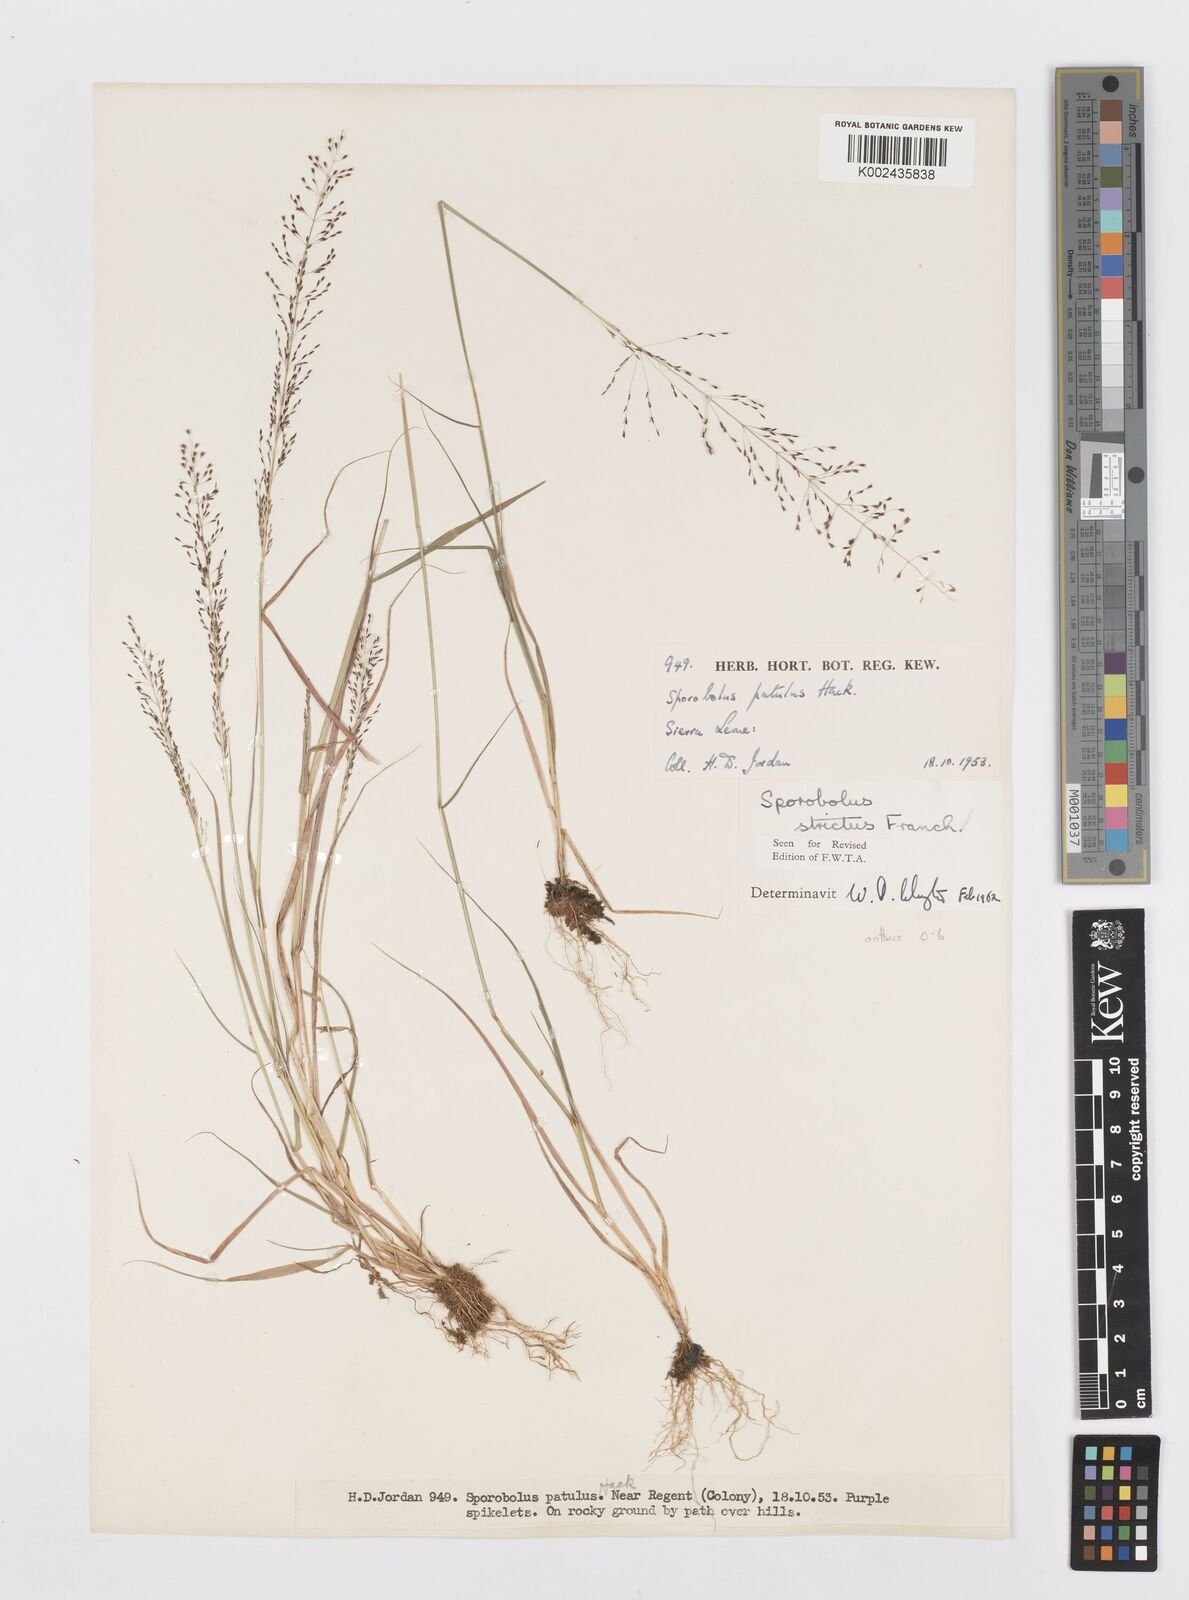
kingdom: Plantae
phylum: Tracheophyta
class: Liliopsida
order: Poales
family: Poaceae
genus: Sporobolus
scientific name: Sporobolus paniculatus
